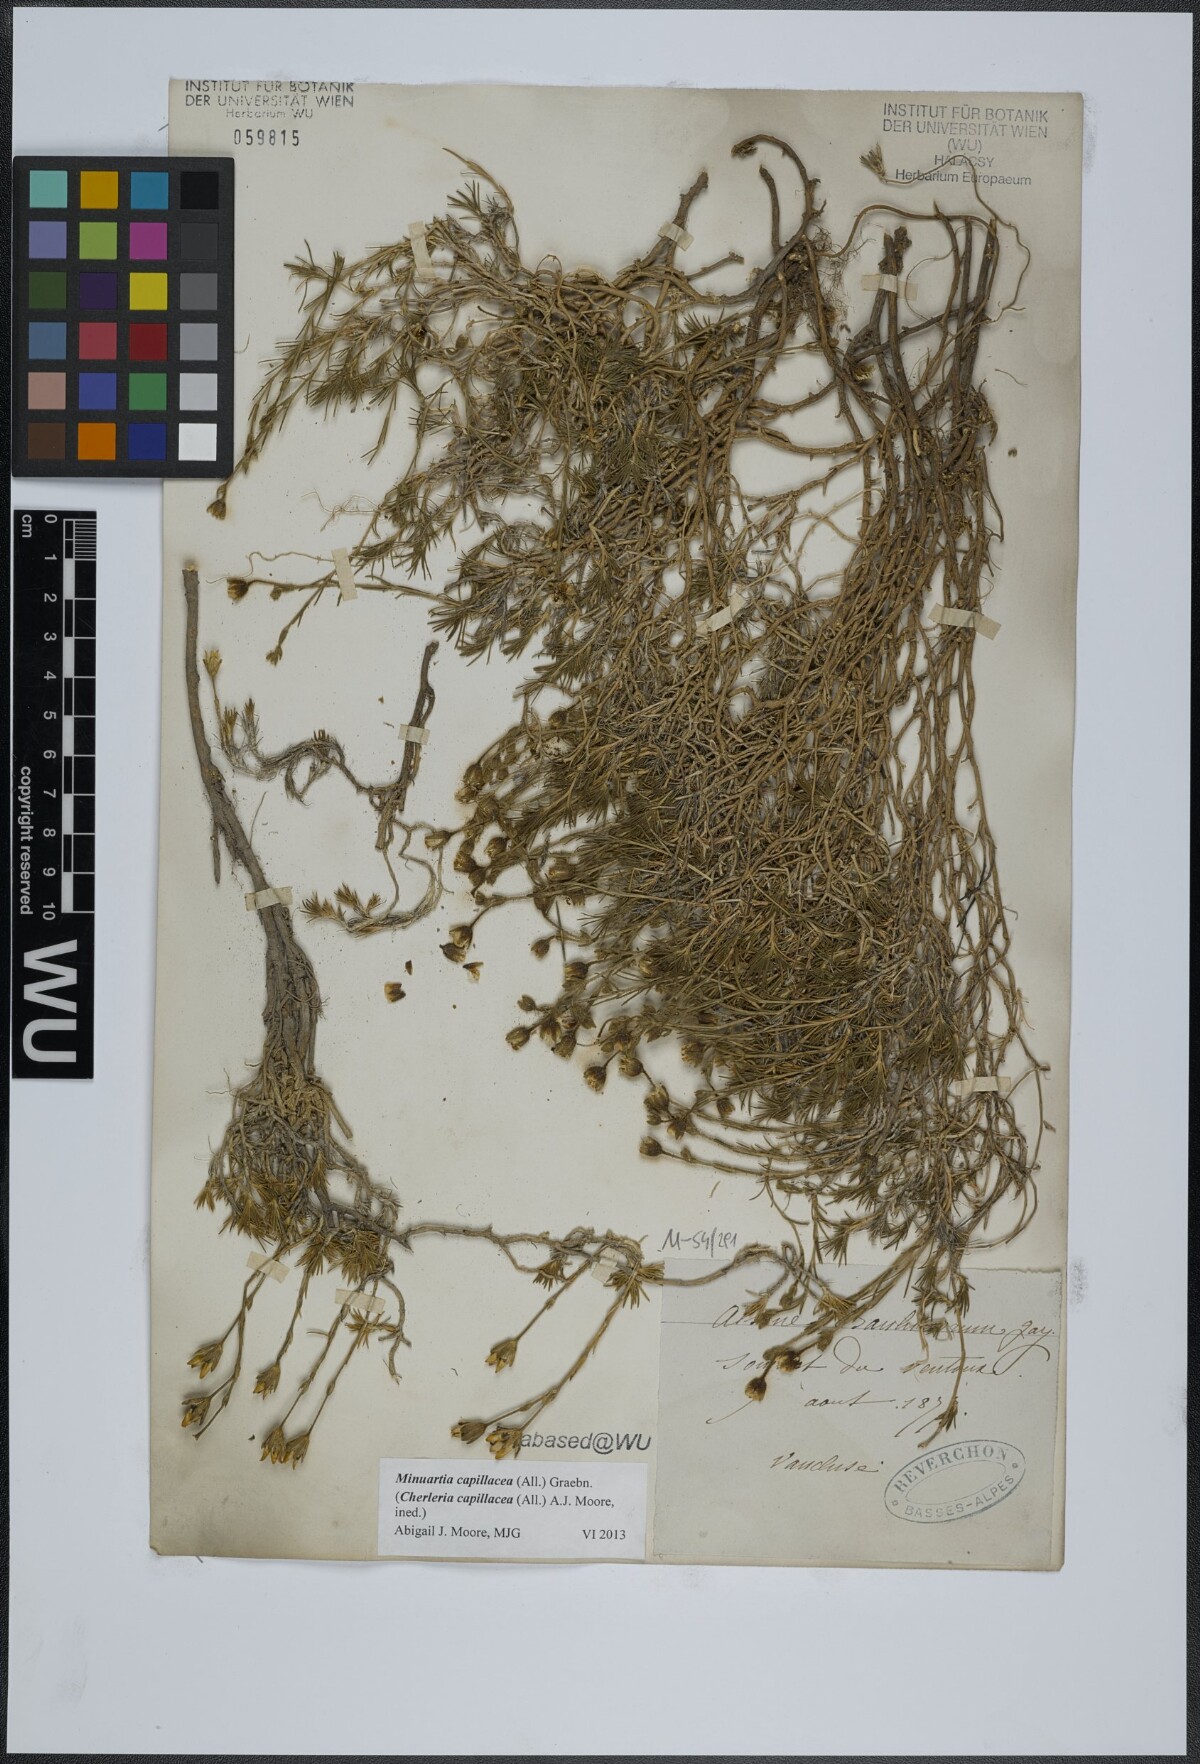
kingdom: Plantae
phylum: Tracheophyta
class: Magnoliopsida
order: Caryophyllales
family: Caryophyllaceae
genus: Cherleria
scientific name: Cherleria capillacea
